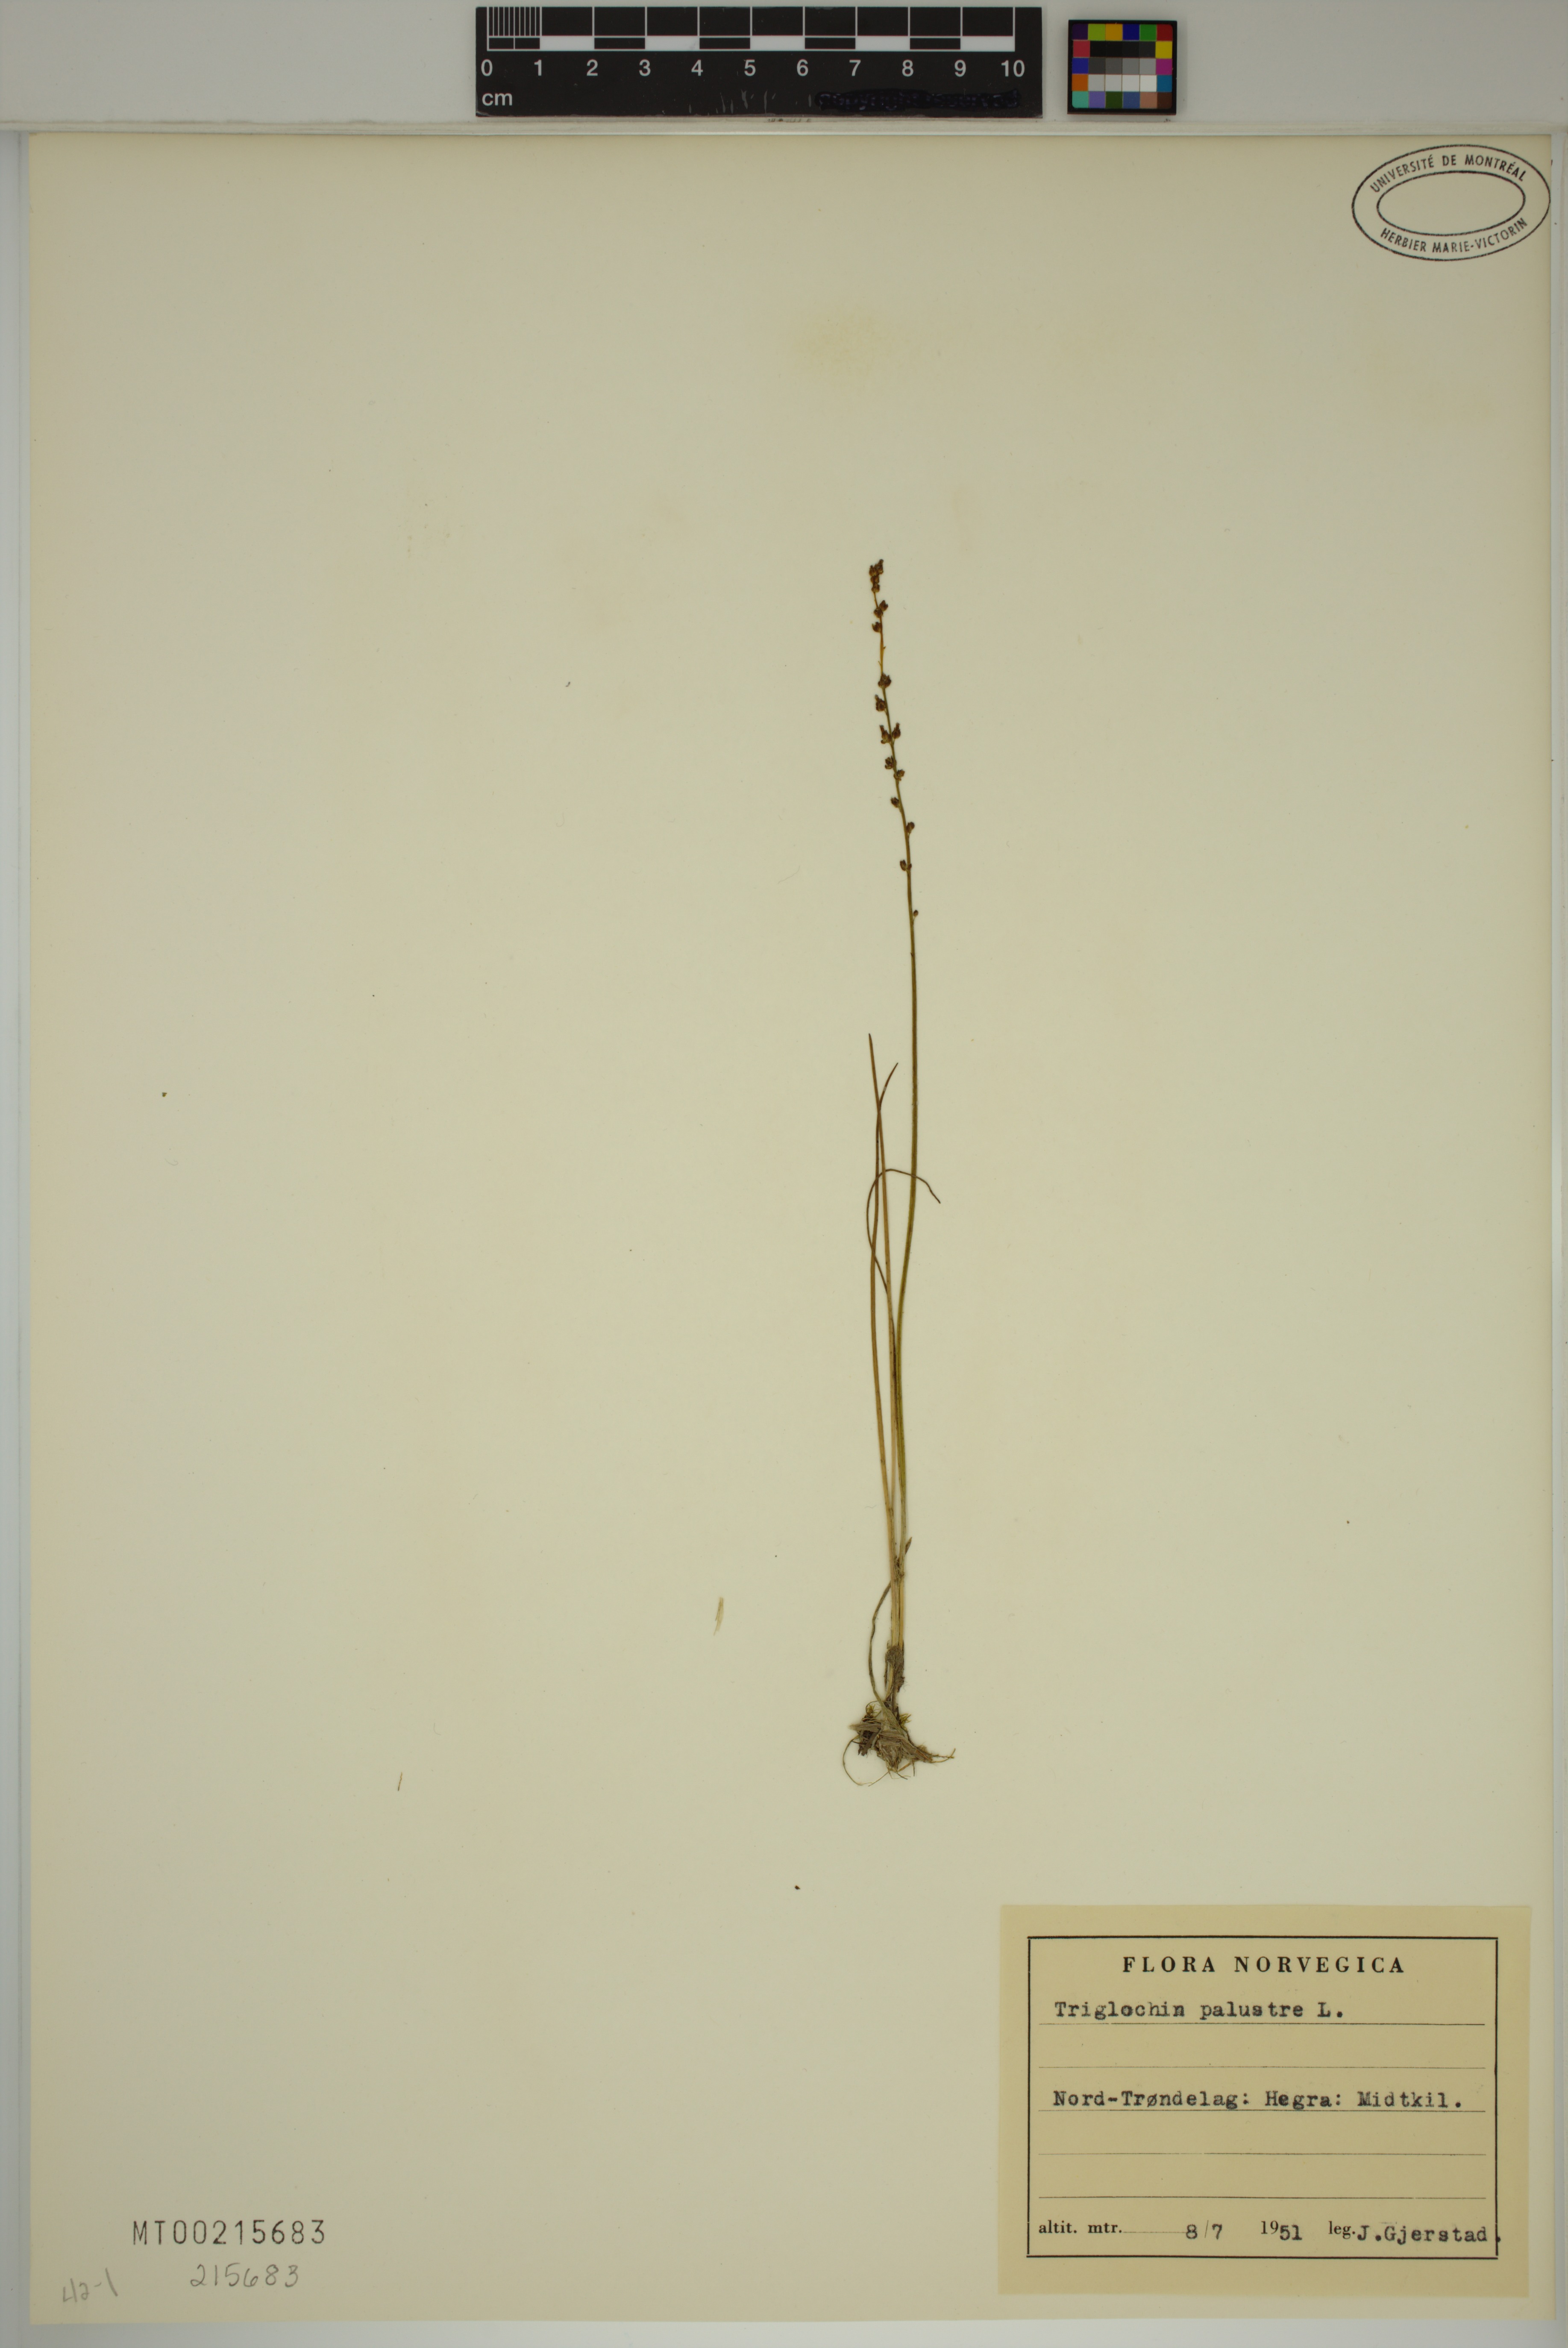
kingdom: Plantae
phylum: Tracheophyta
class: Liliopsida
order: Alismatales
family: Juncaginaceae
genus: Triglochin
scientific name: Triglochin palustris
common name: Marsh arrowgrass
